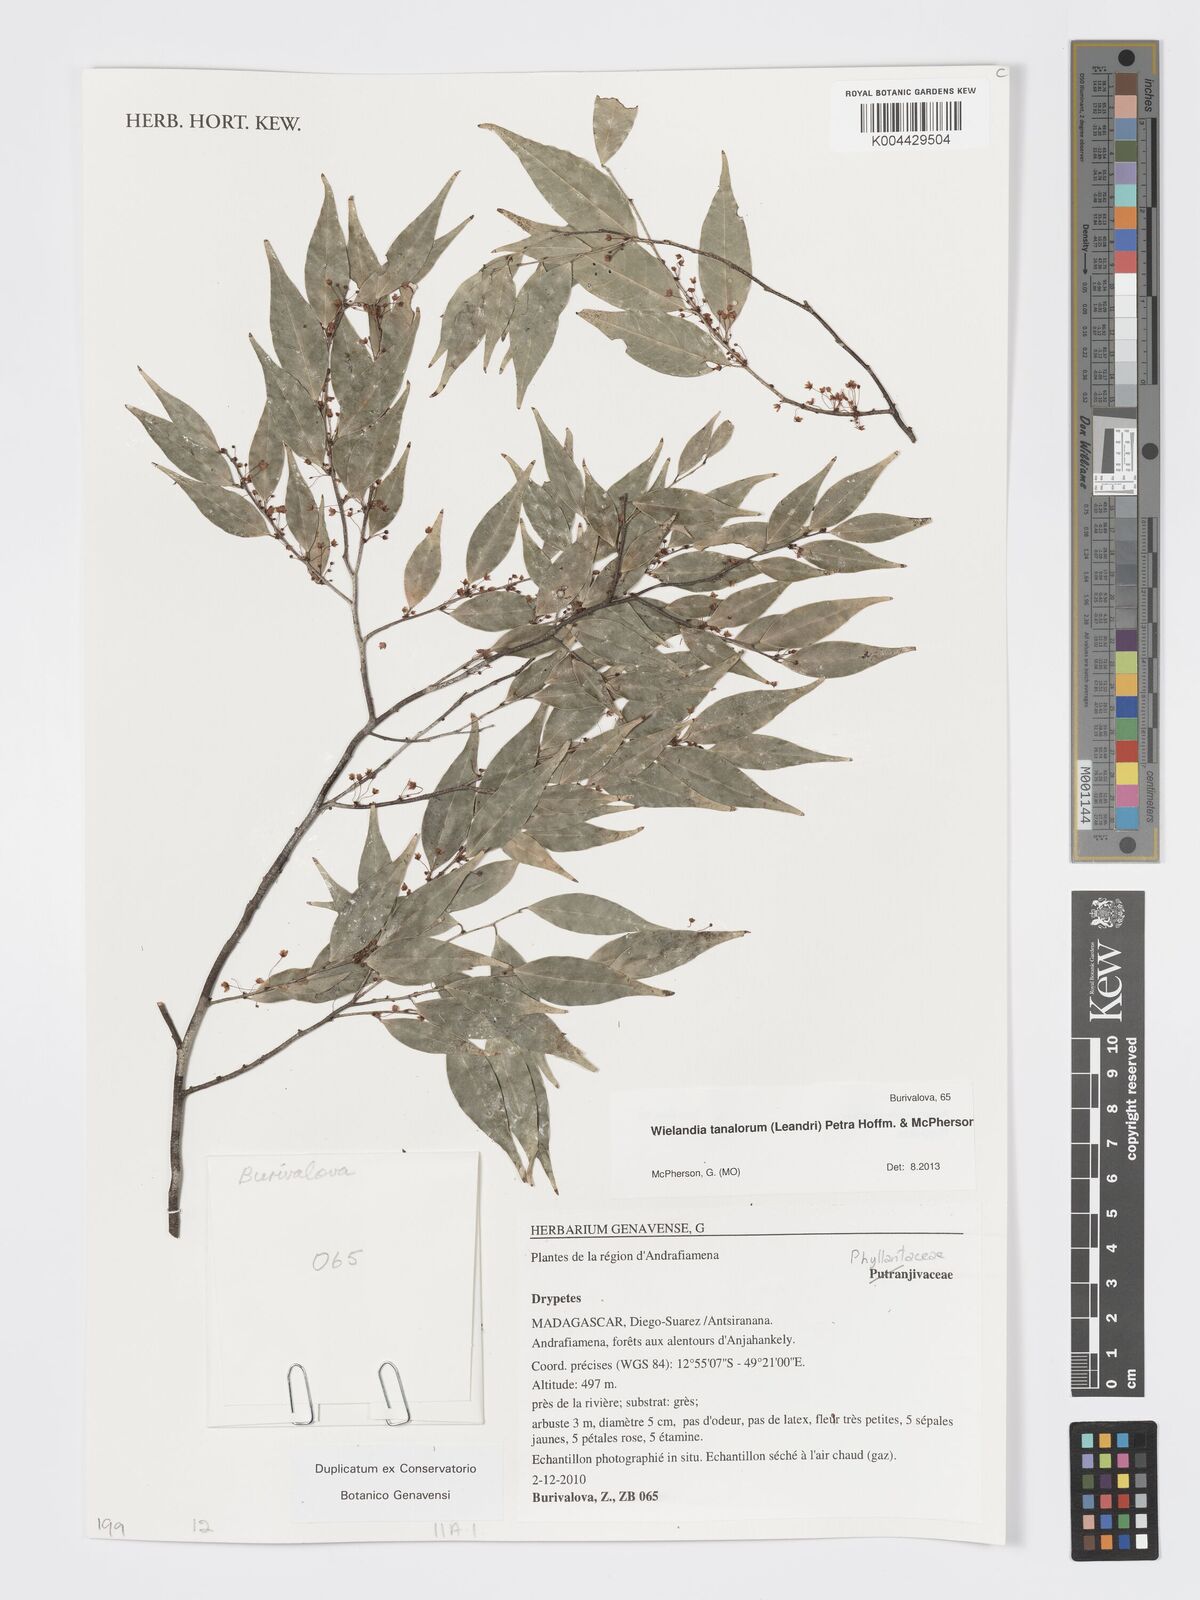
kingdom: Plantae
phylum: Tracheophyta
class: Magnoliopsida
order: Malpighiales
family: Phyllanthaceae
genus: Wielandia
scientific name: Wielandia tanalorum
